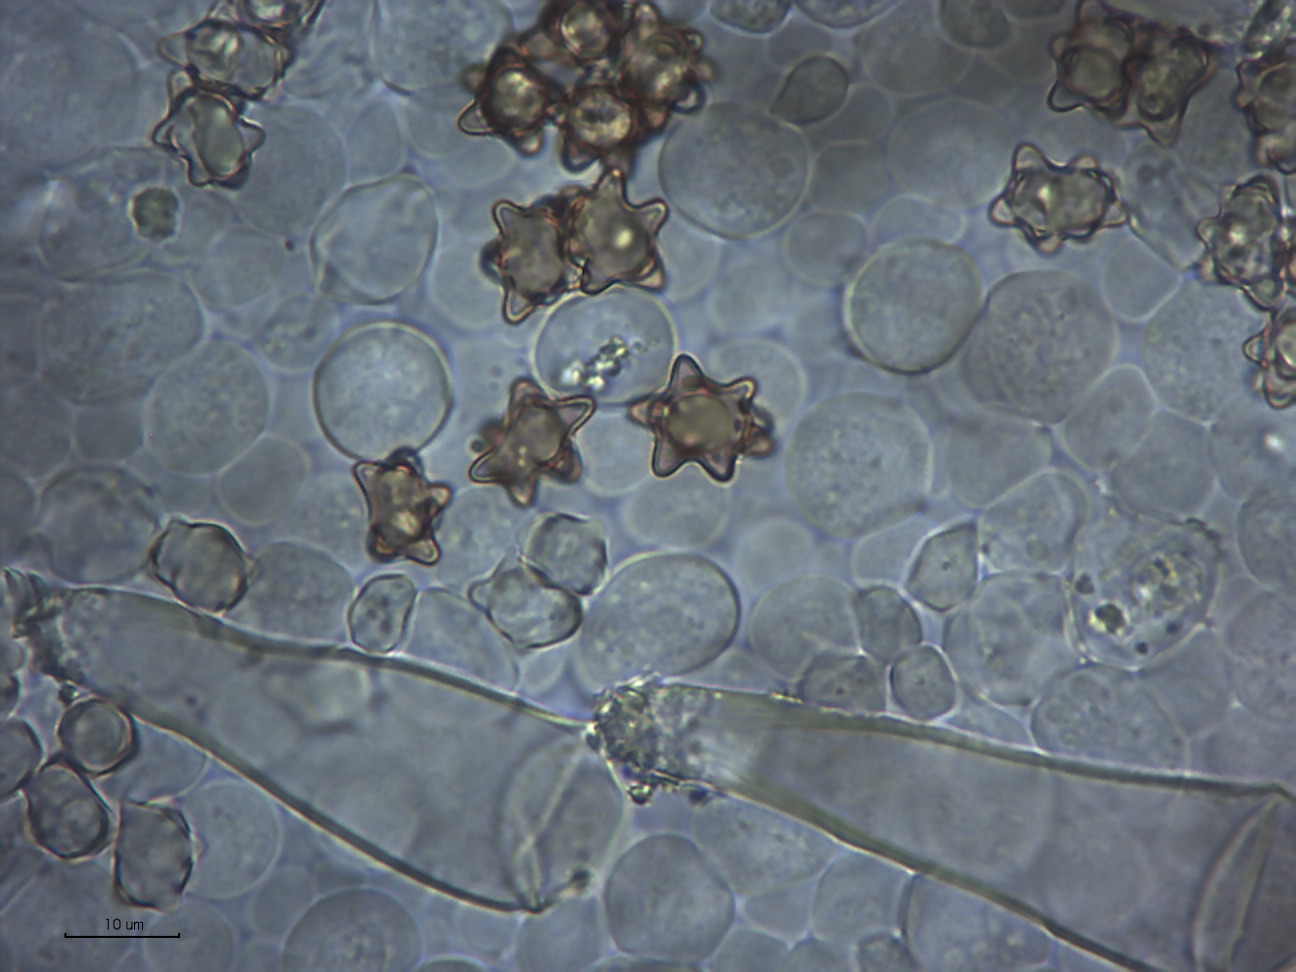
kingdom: Fungi
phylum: Basidiomycota
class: Agaricomycetes
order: Agaricales
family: Inocybaceae
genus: Inocybe
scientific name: Inocybe
